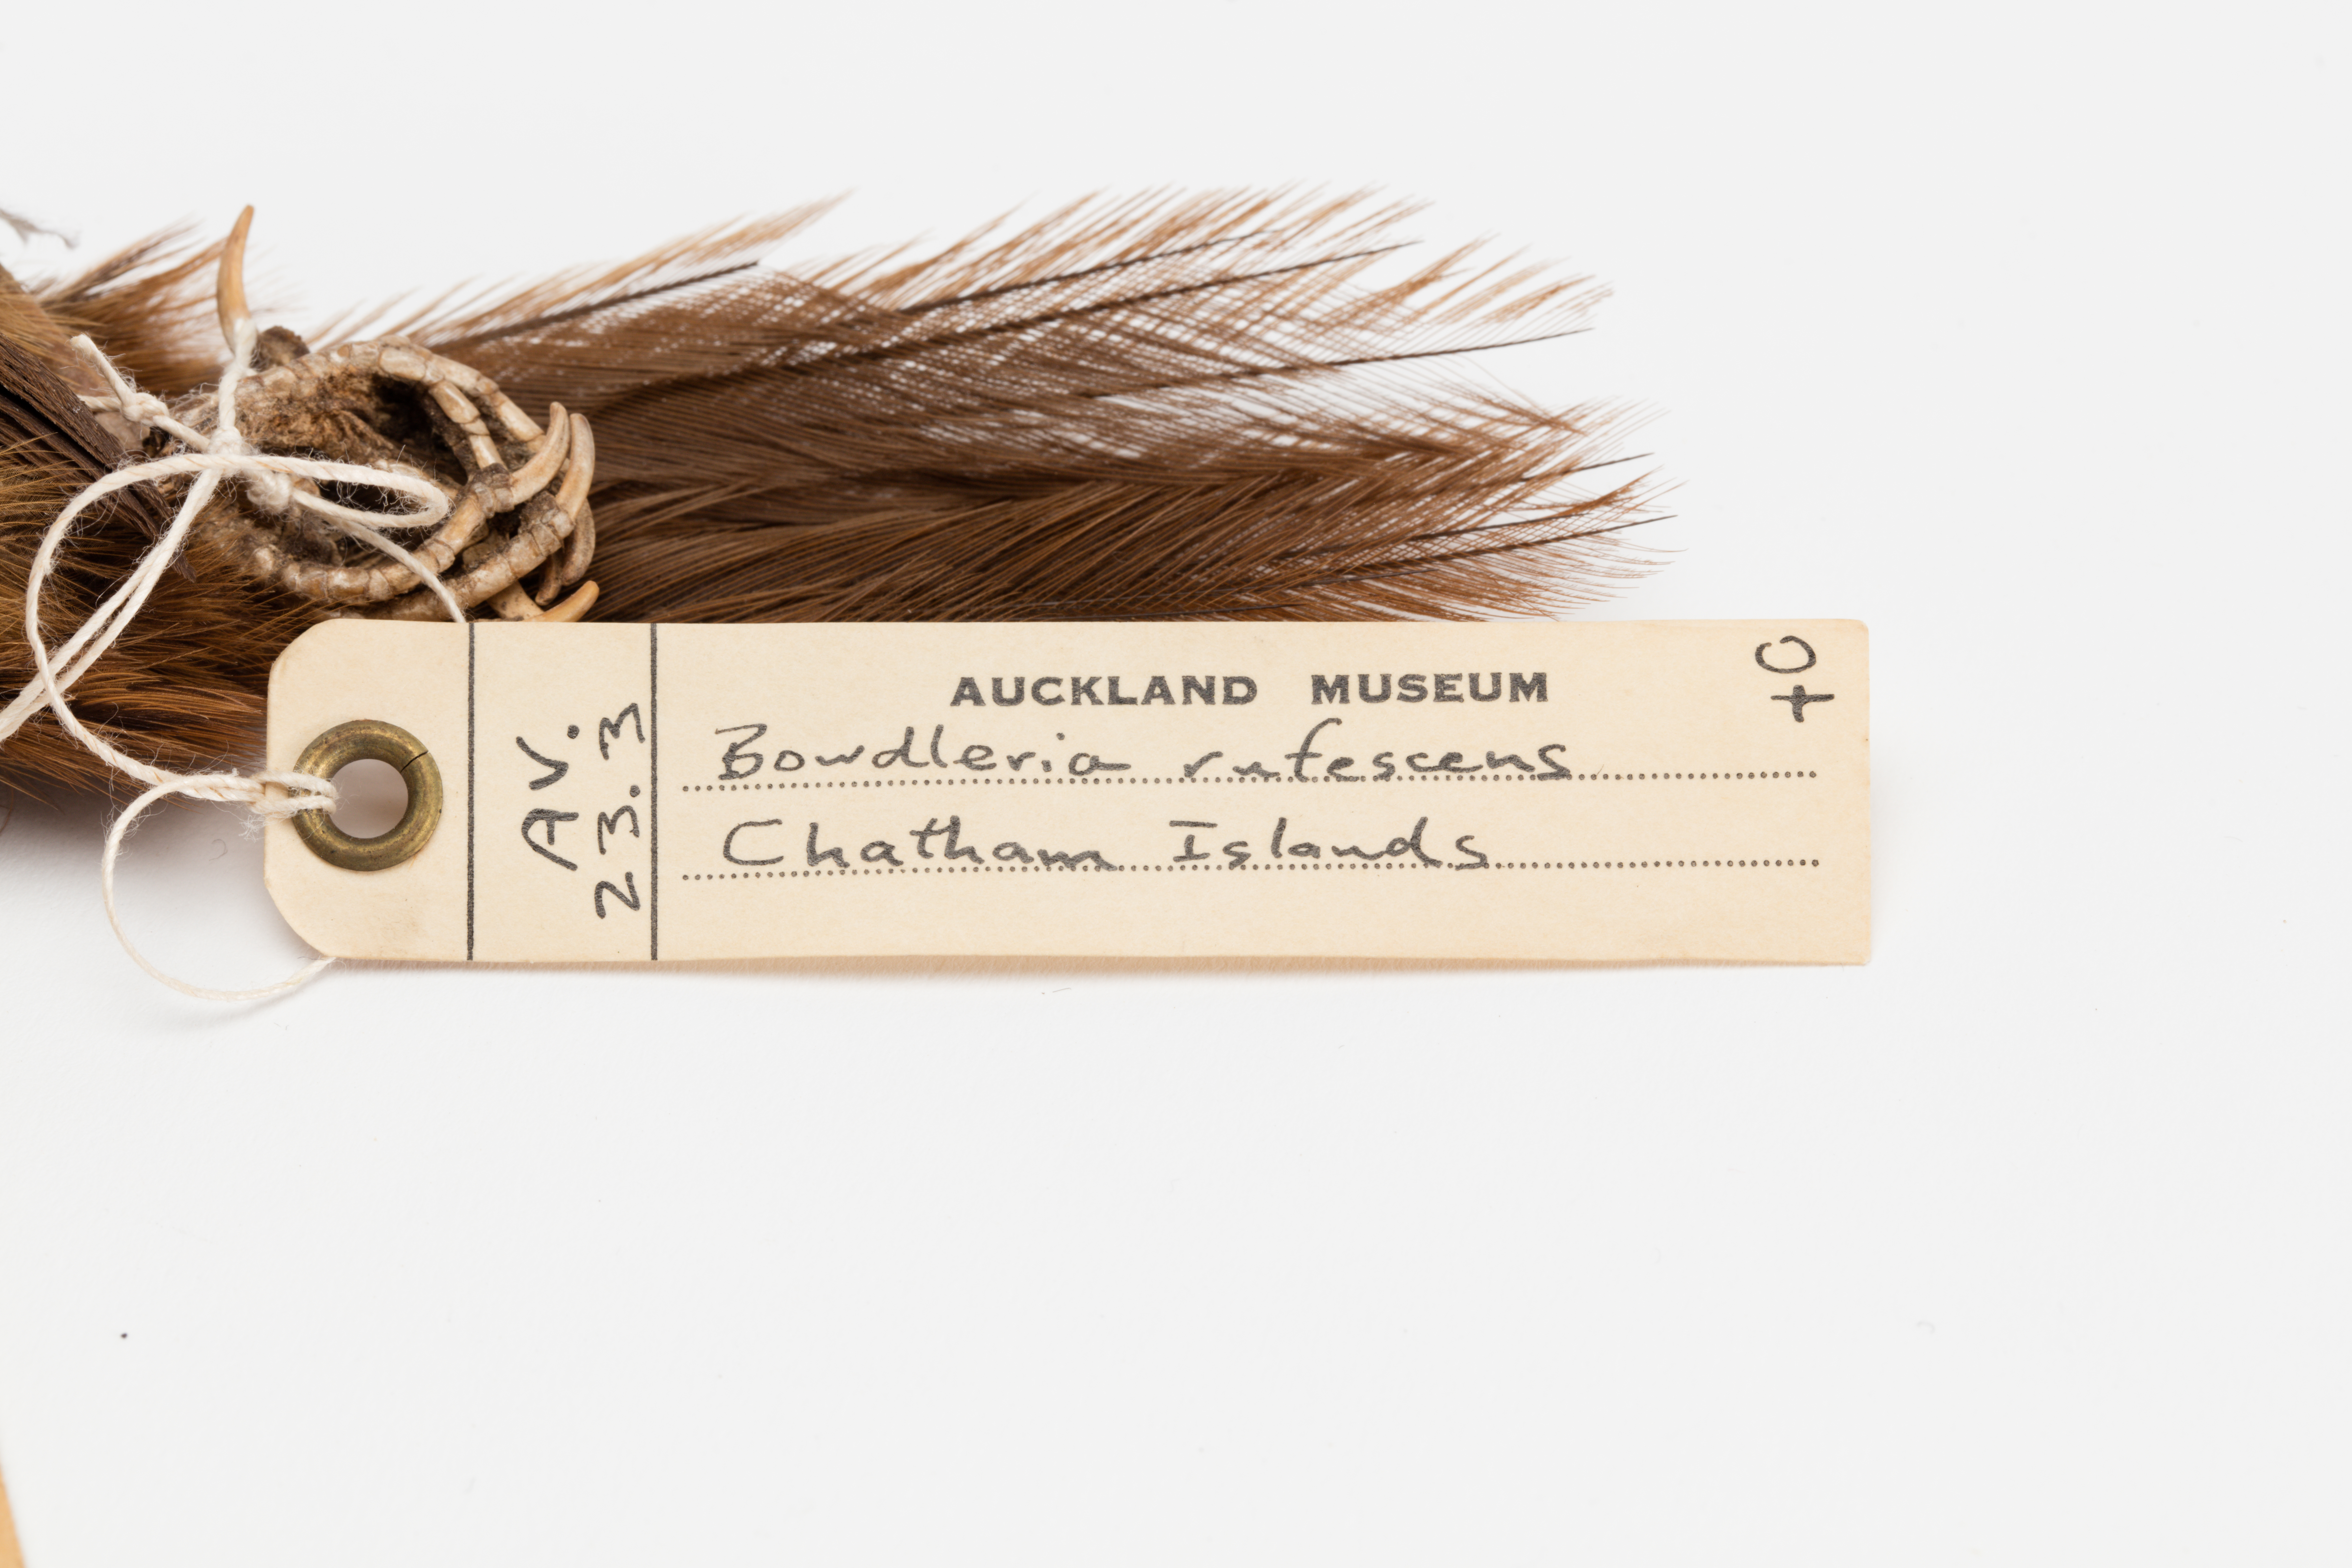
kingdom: Animalia
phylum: Chordata
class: Aves
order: Passeriformes
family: Locustellidae
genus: Megalurus
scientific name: Megalurus rufescens
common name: Chatham fernbird
